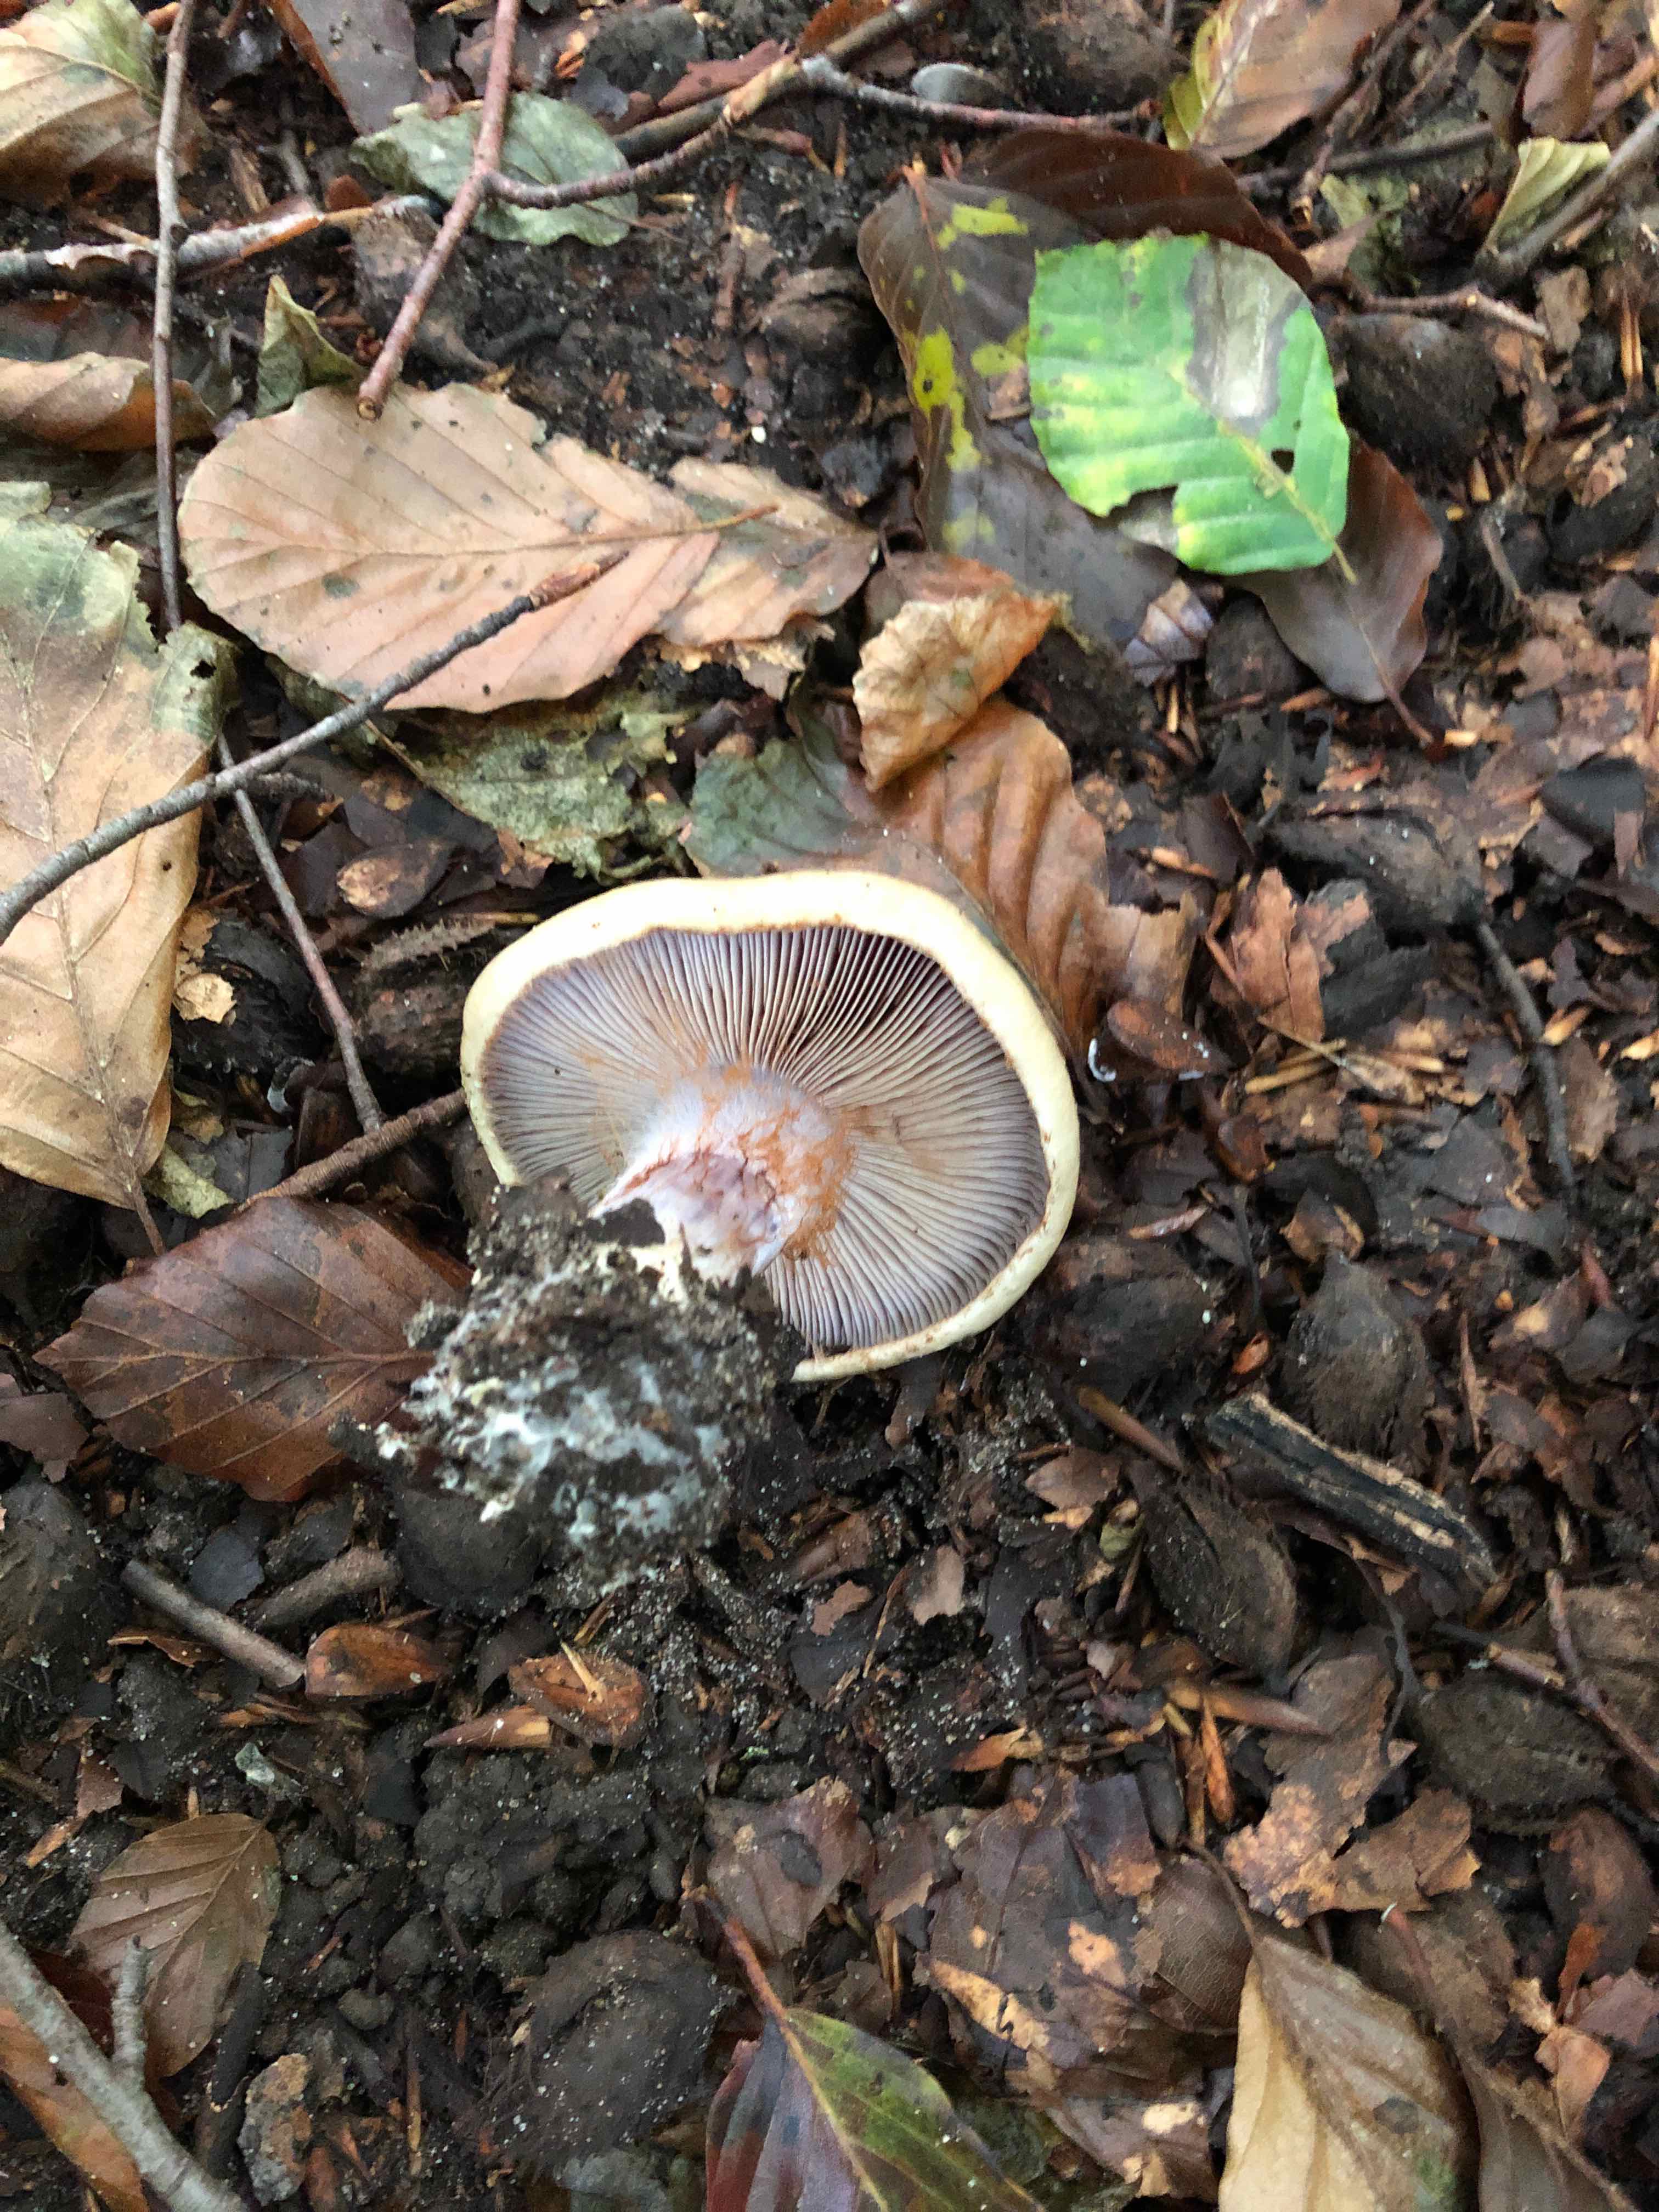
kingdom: Fungi
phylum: Basidiomycota
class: Agaricomycetes
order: Agaricales
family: Cortinariaceae
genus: Cortinarius
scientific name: Cortinarius anserinus
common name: bøge-slørhat
